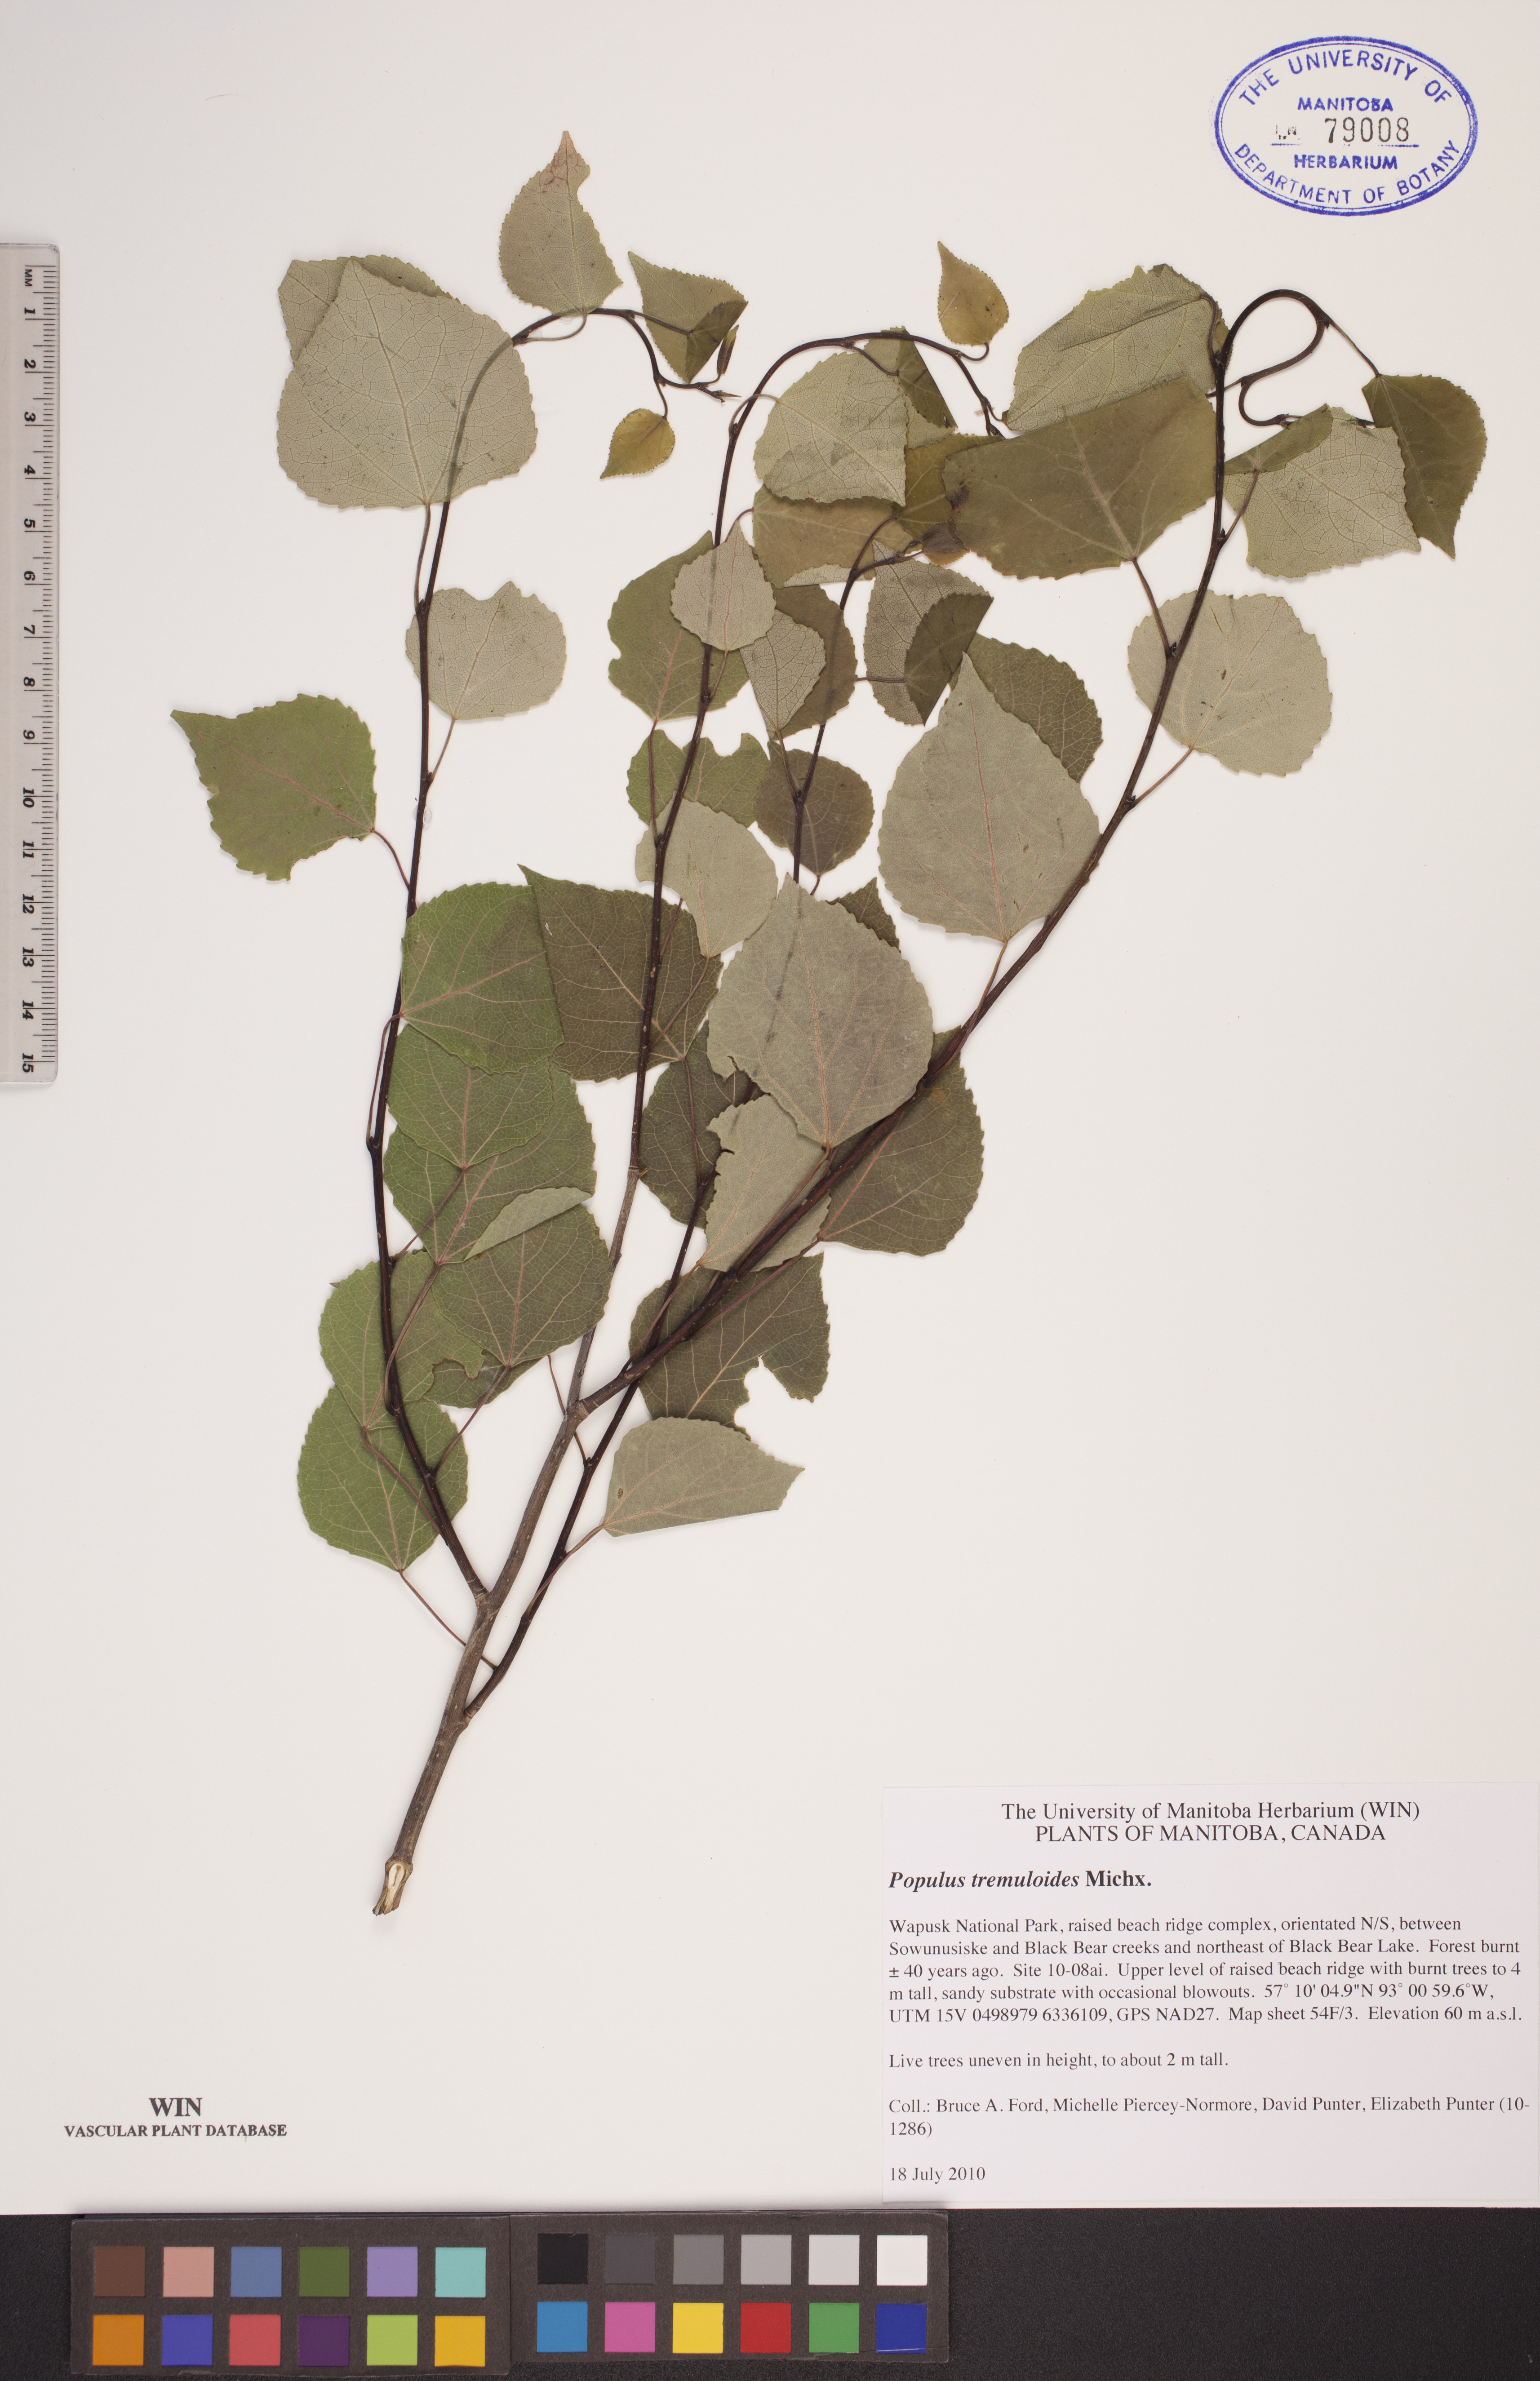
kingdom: Plantae
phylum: Tracheophyta
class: Magnoliopsida
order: Malpighiales
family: Salicaceae
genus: Populus
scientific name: Populus tremuloides
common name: Quaking aspen
